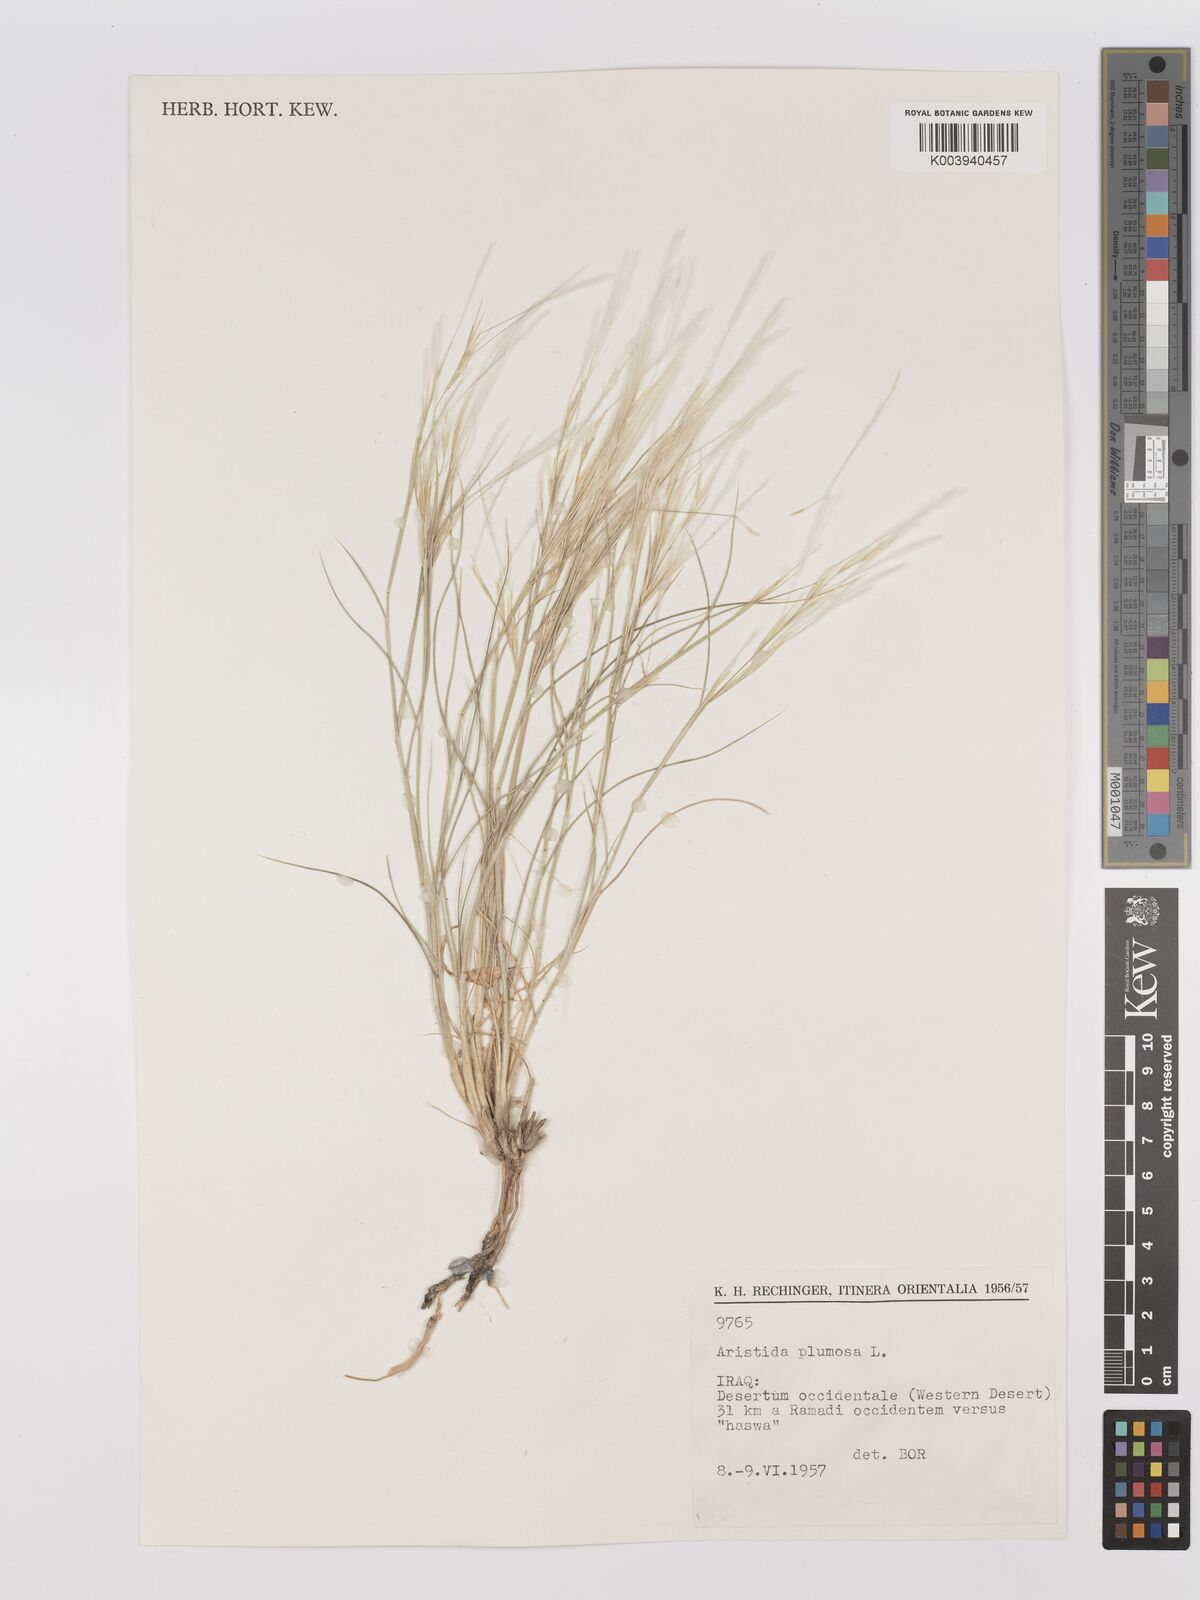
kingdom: Plantae
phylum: Tracheophyta
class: Liliopsida
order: Poales
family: Poaceae
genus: Stipagrostis
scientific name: Stipagrostis plumosa
